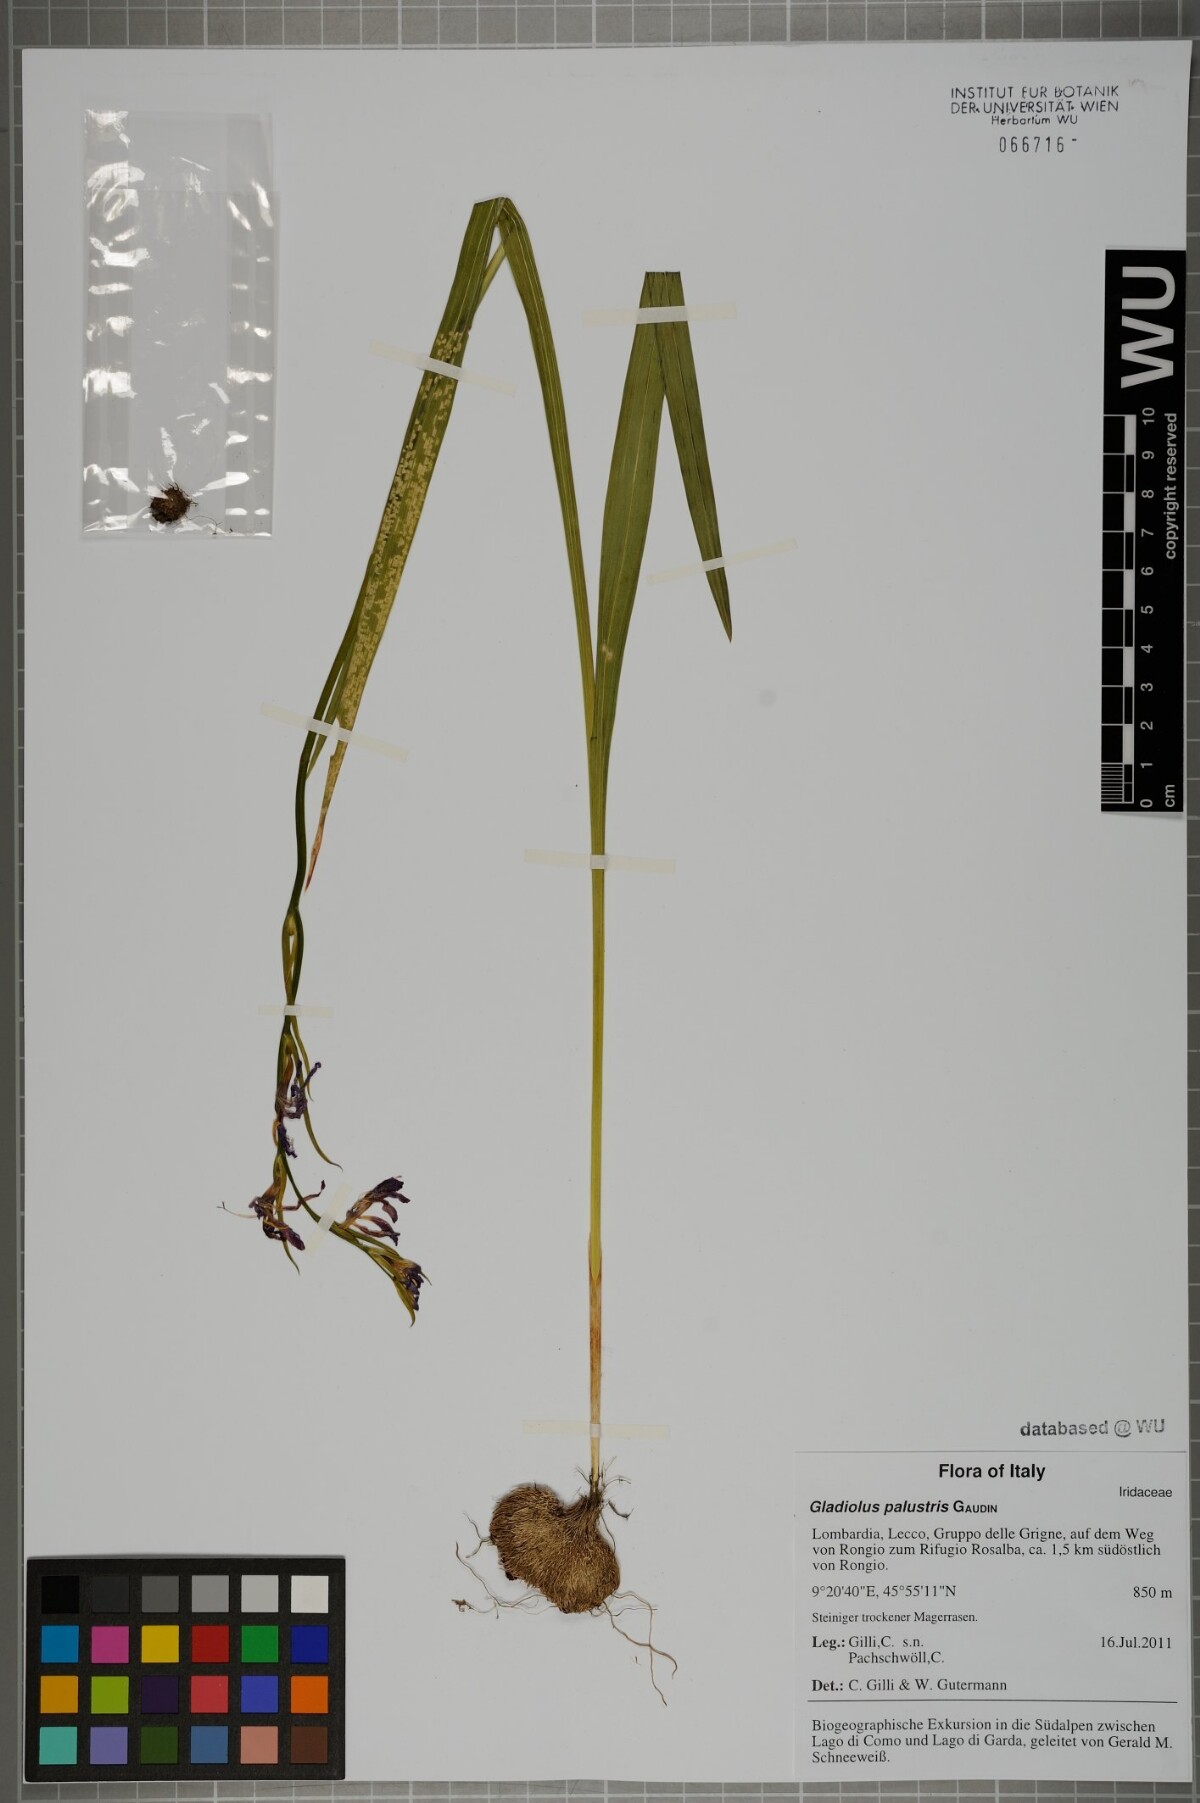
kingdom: Plantae
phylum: Tracheophyta
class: Liliopsida
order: Asparagales
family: Iridaceae
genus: Gladiolus
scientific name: Gladiolus palustris
